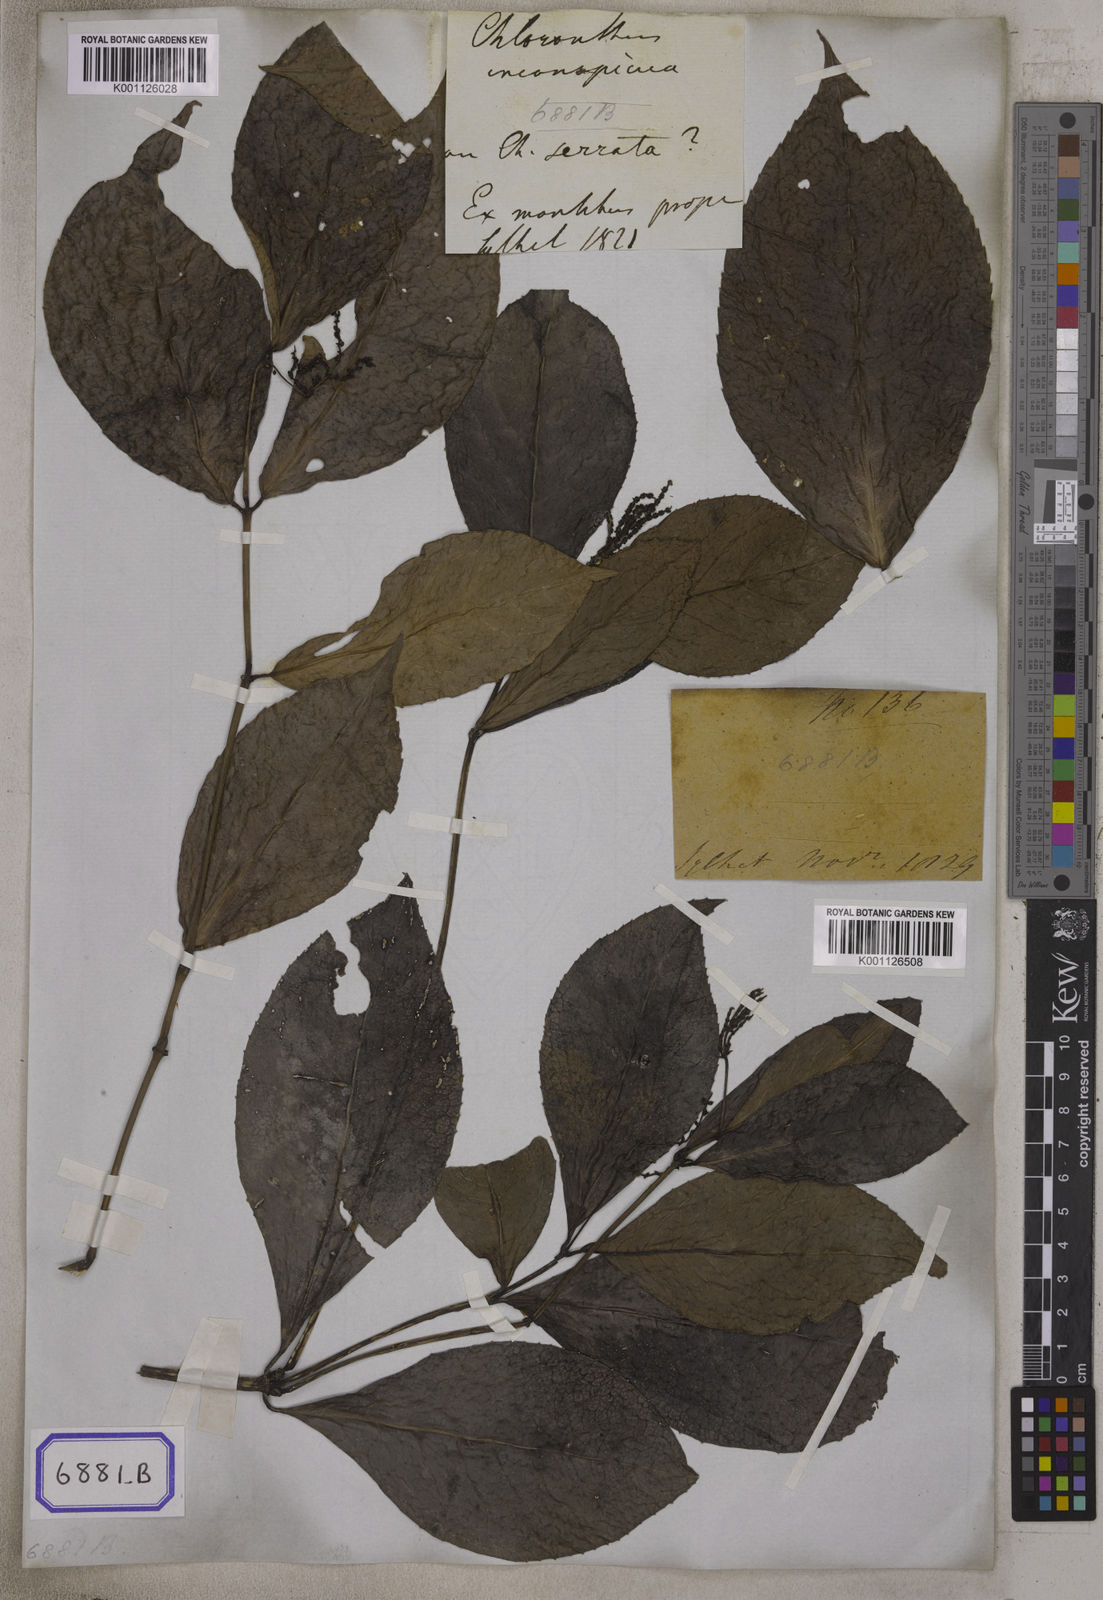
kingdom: Plantae
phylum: Tracheophyta
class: Magnoliopsida
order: Chloranthales
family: Chloranthaceae
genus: Chloranthus
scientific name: Chloranthus
